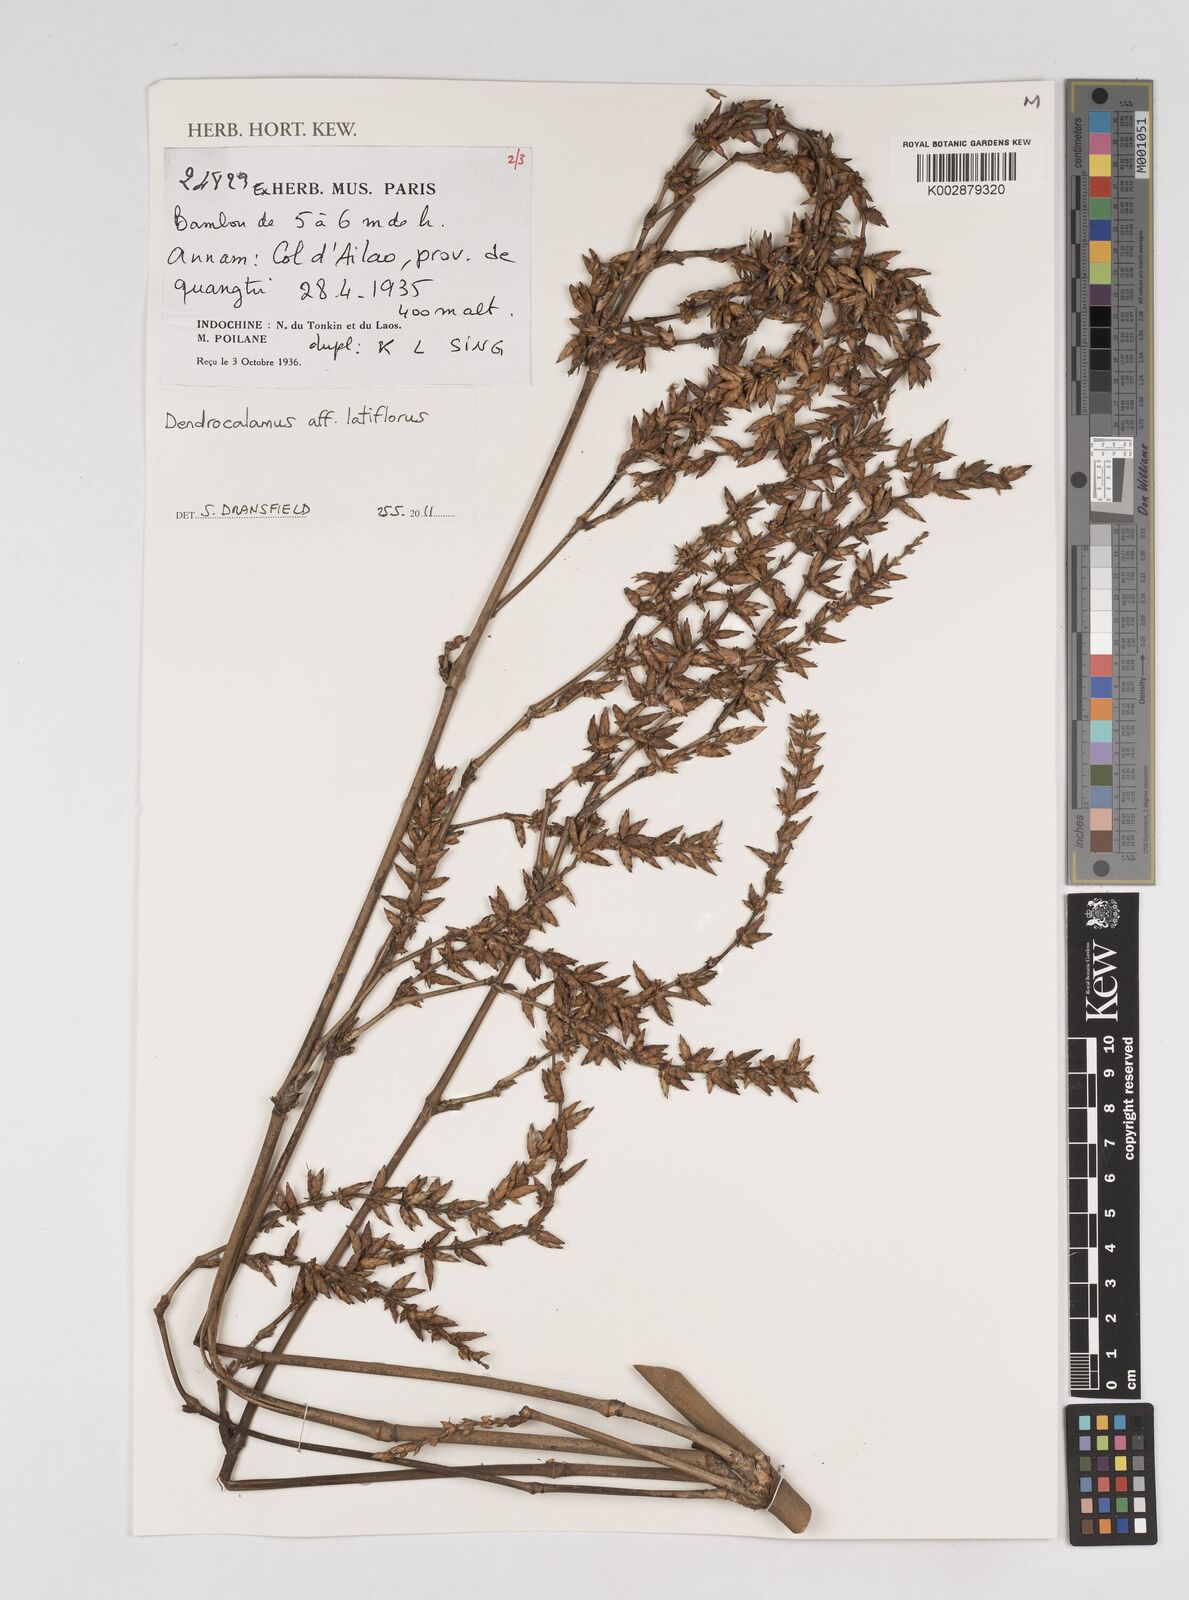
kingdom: Plantae
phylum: Tracheophyta
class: Liliopsida
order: Poales
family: Poaceae
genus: Dendrocalamus
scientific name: Dendrocalamus latiflorus
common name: Giant bamboo
